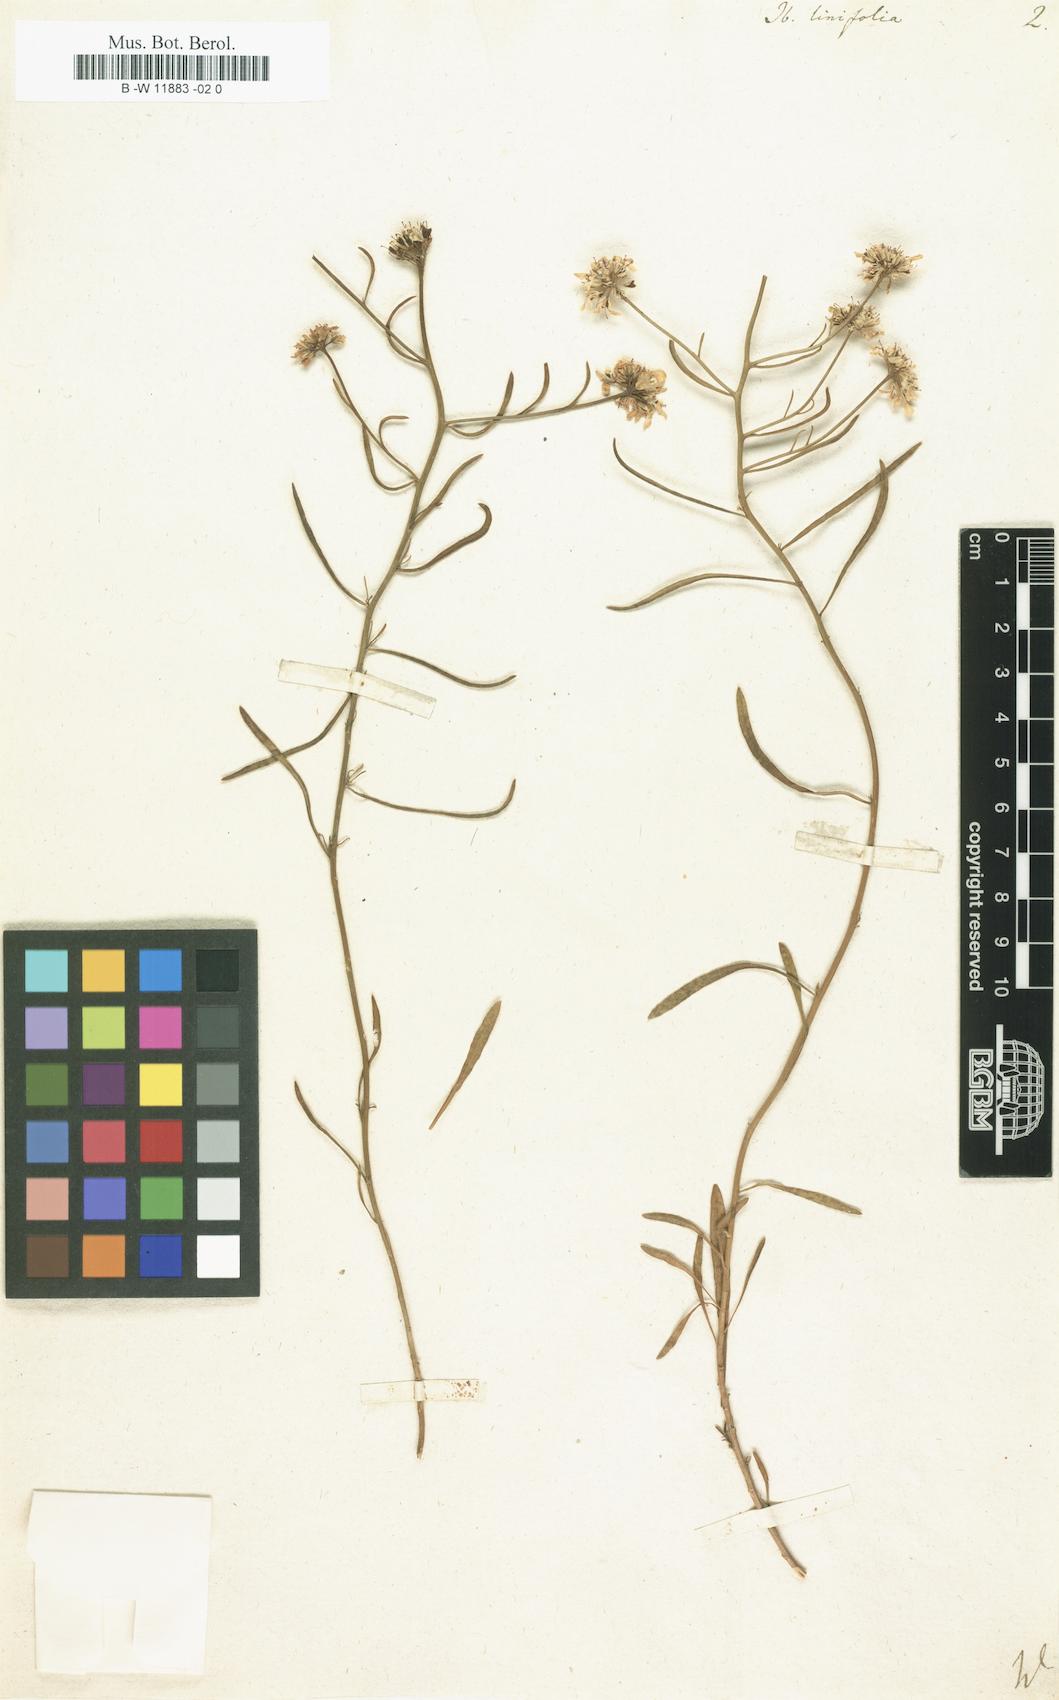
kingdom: Plantae
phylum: Tracheophyta
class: Magnoliopsida
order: Brassicales
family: Brassicaceae
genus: Lepidium
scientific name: Lepidium linifolium
